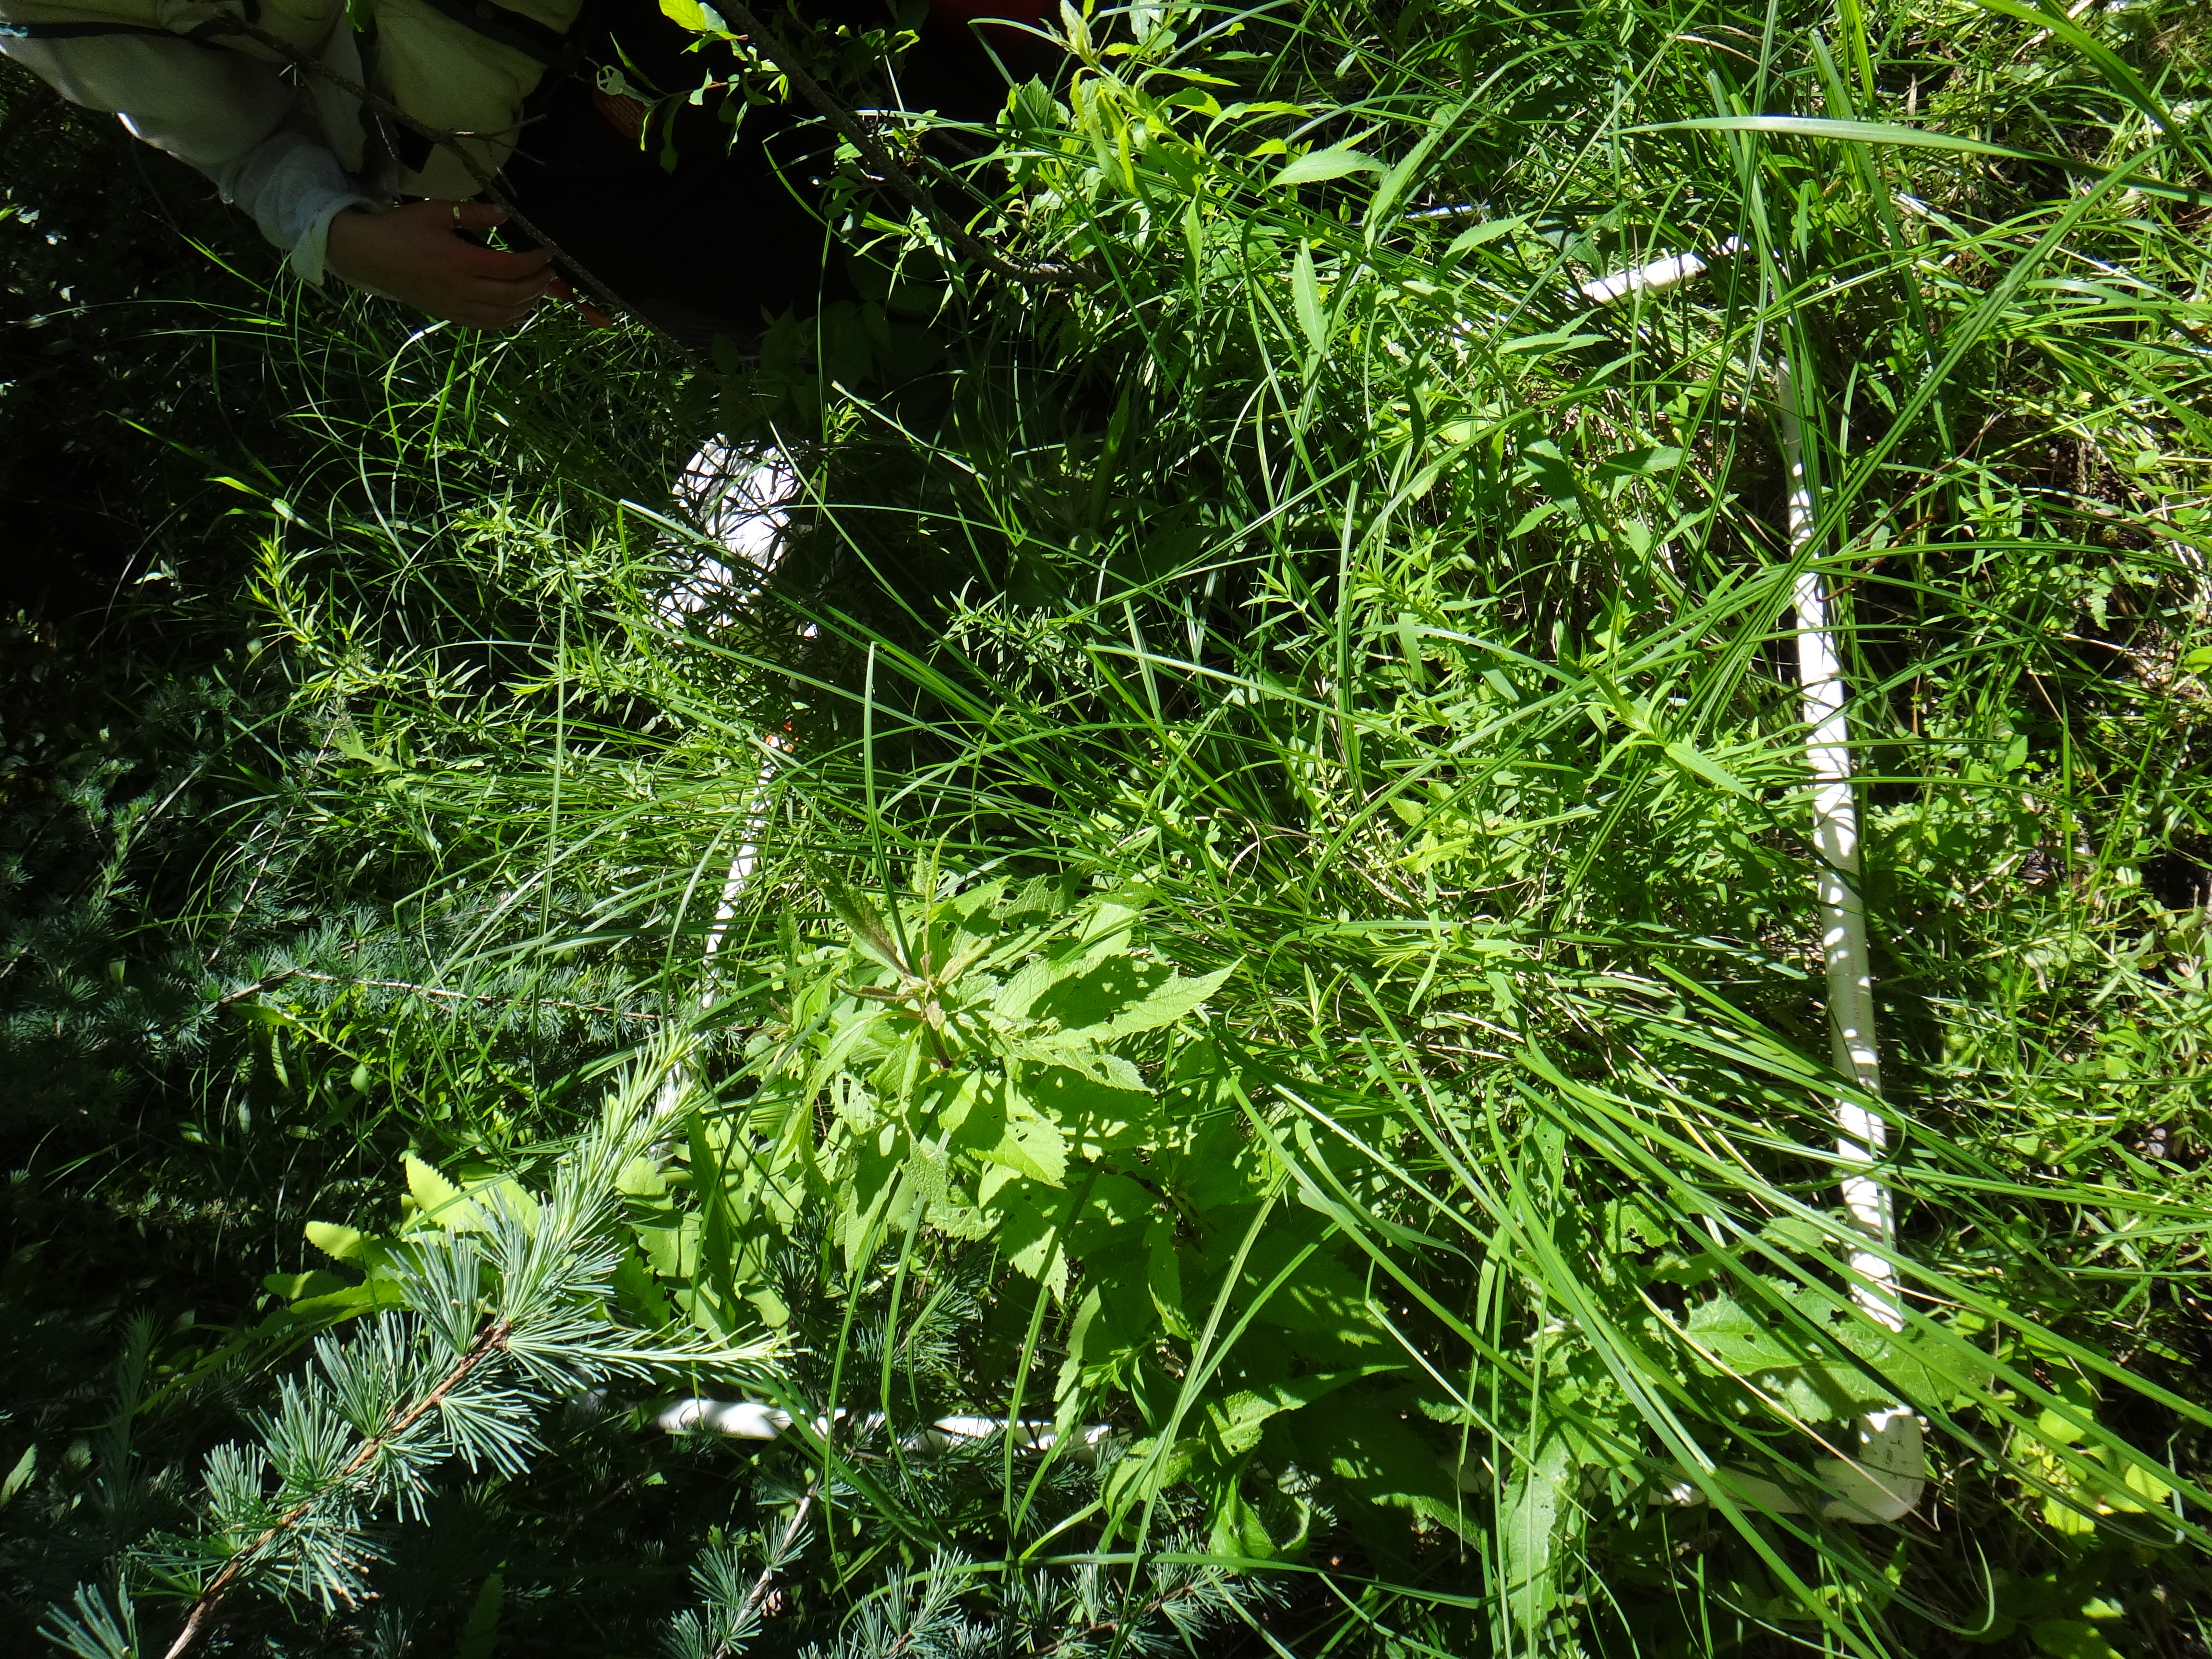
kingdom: Plantae
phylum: Tracheophyta
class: Magnoliopsida
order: Asterales
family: Asteraceae
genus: Liatris
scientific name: Liatris spicata
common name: Florist gayfeather
